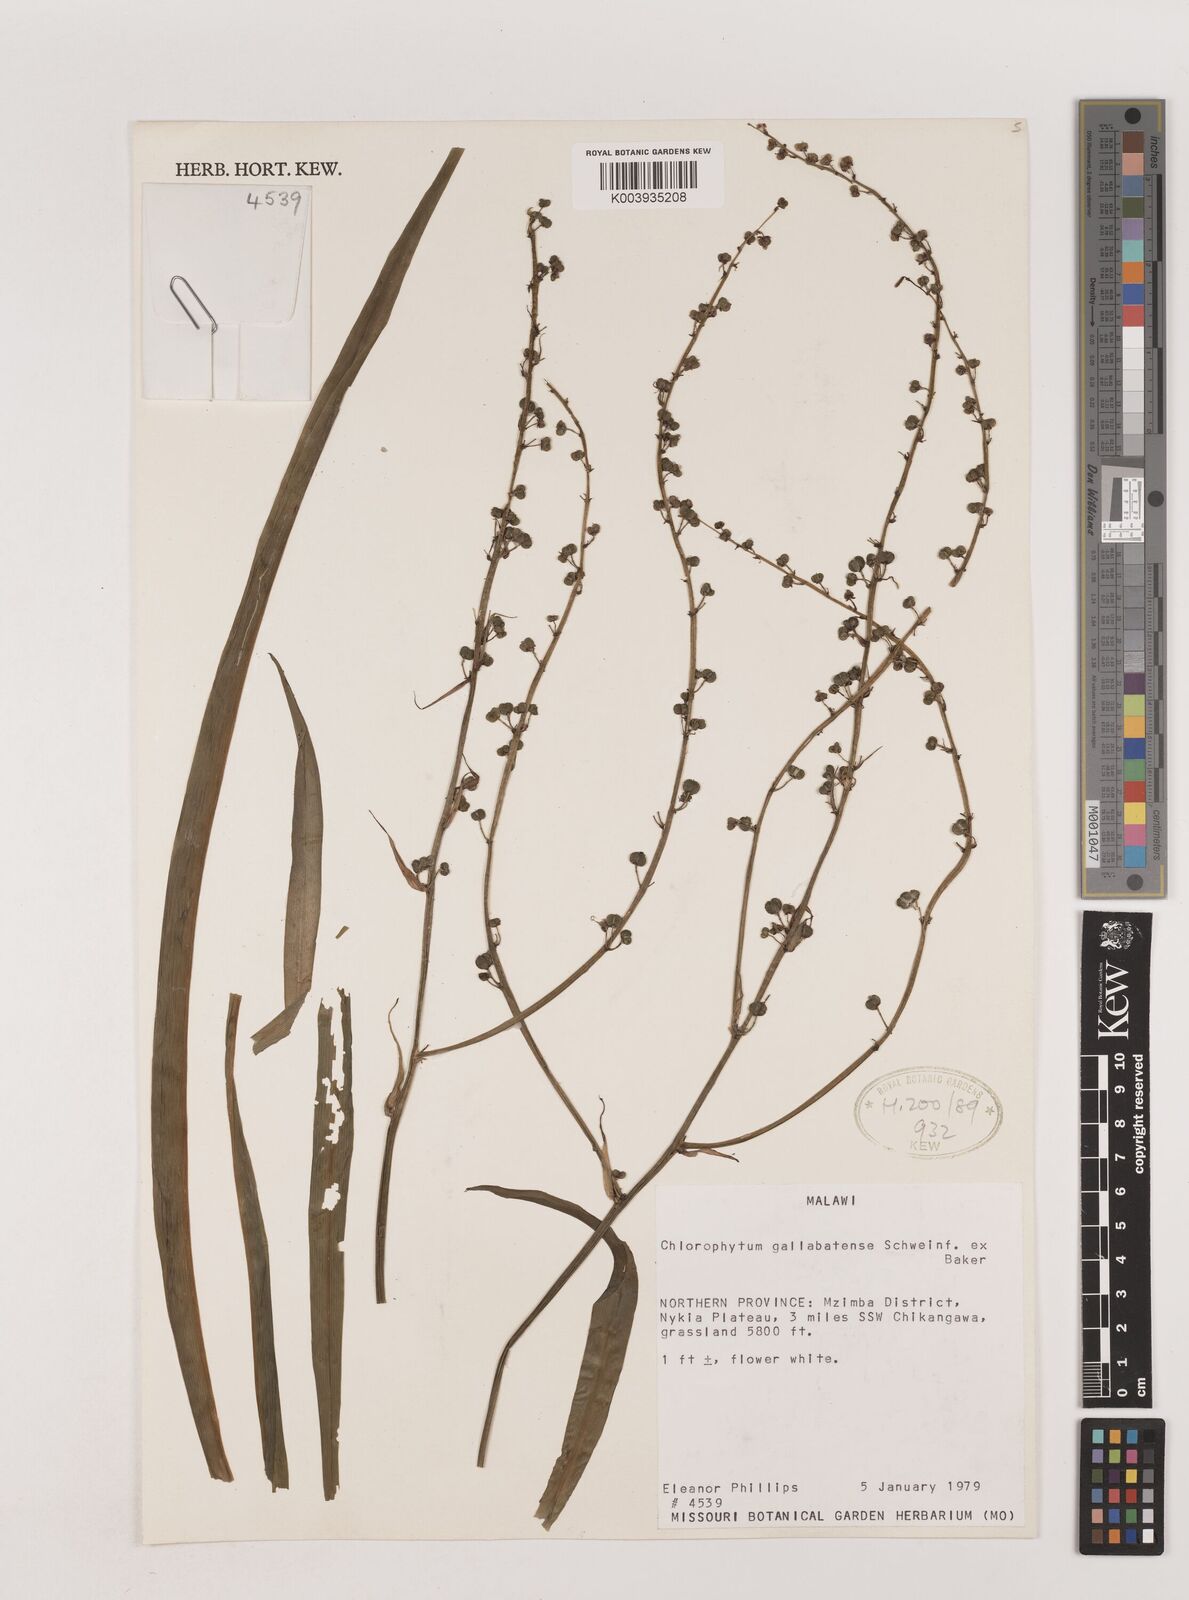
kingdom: Plantae
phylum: Tracheophyta
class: Liliopsida
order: Asparagales
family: Asparagaceae
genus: Chlorophytum
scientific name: Chlorophytum gallabatense
